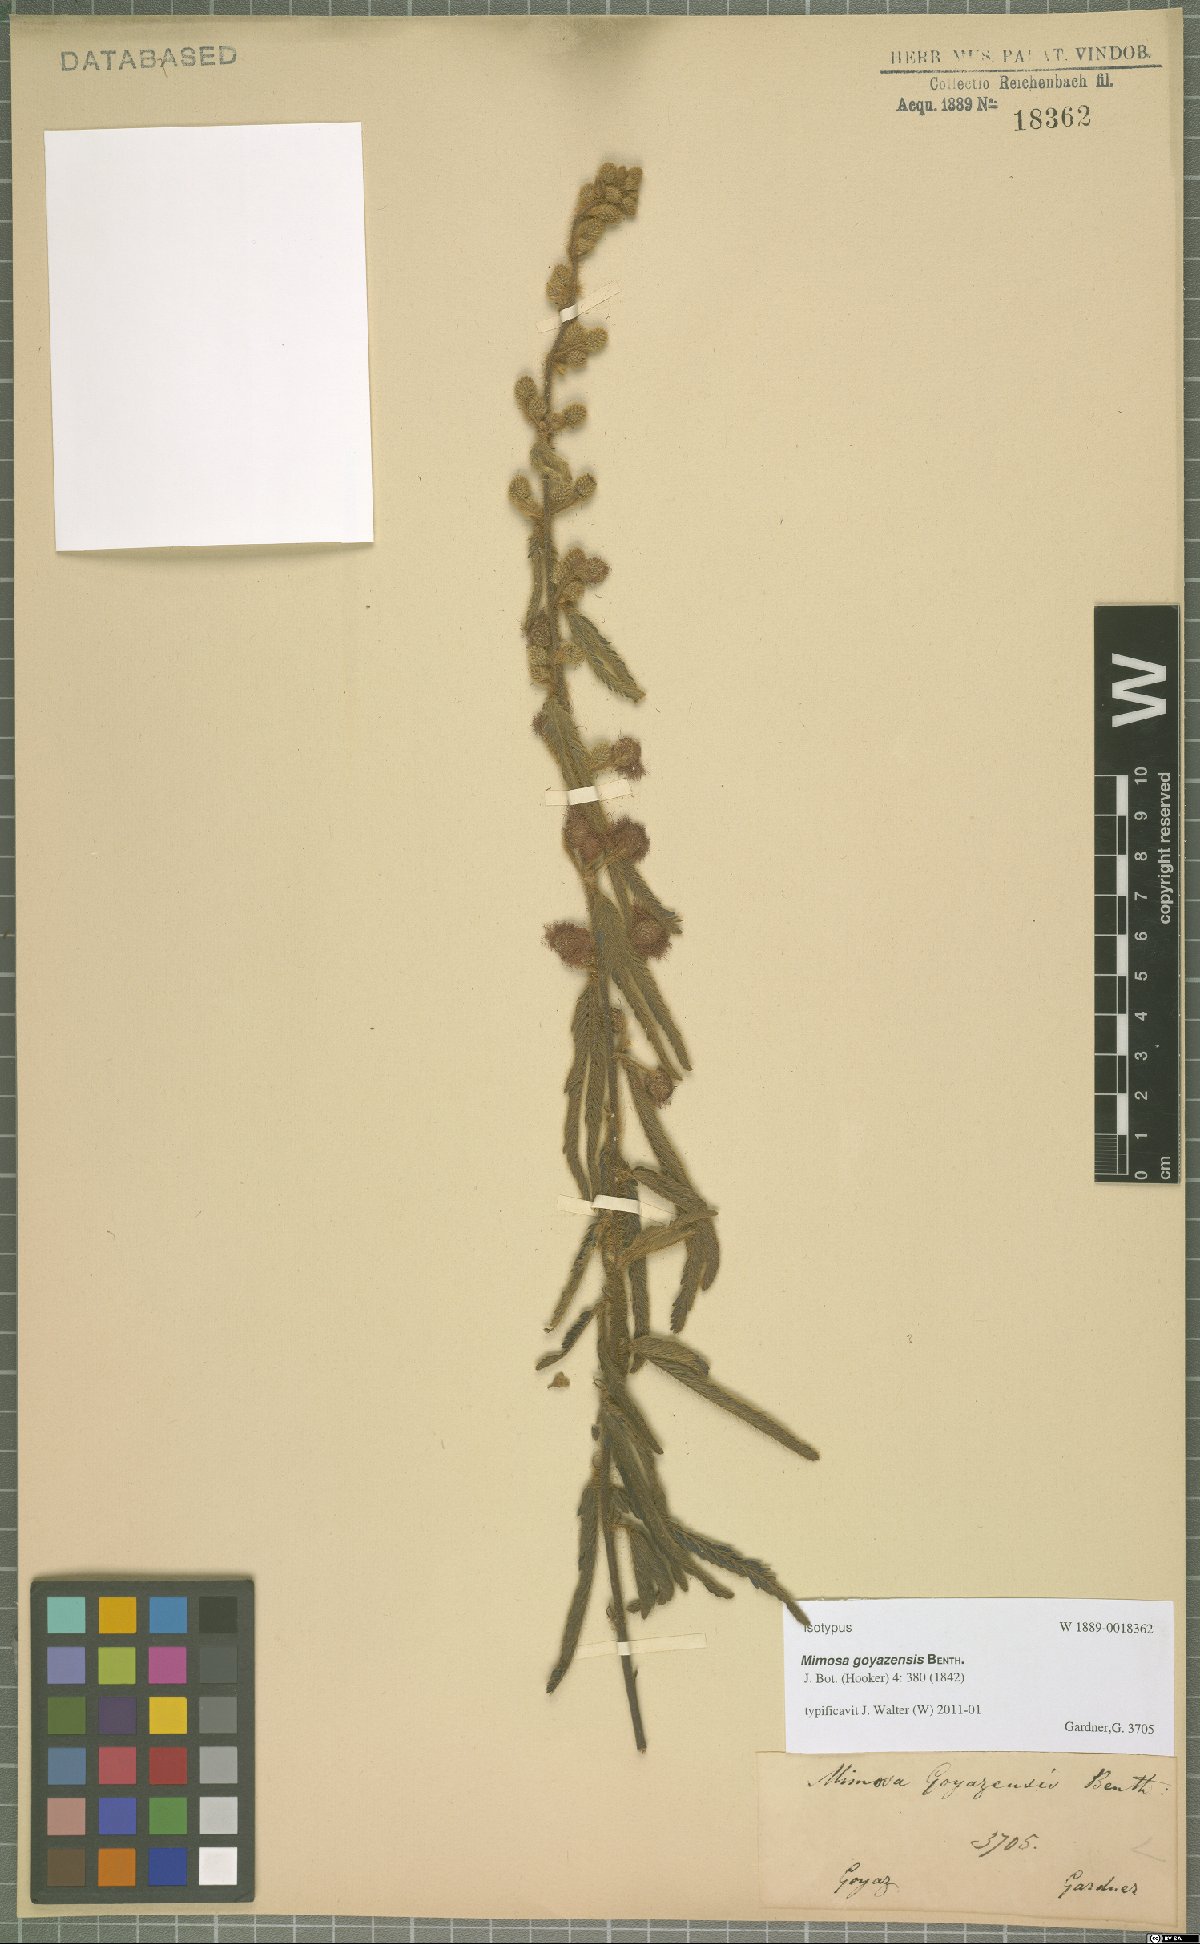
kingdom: Plantae
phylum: Tracheophyta
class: Magnoliopsida
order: Fabales
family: Fabaceae
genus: Mimosa
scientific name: Mimosa xanthocentra
